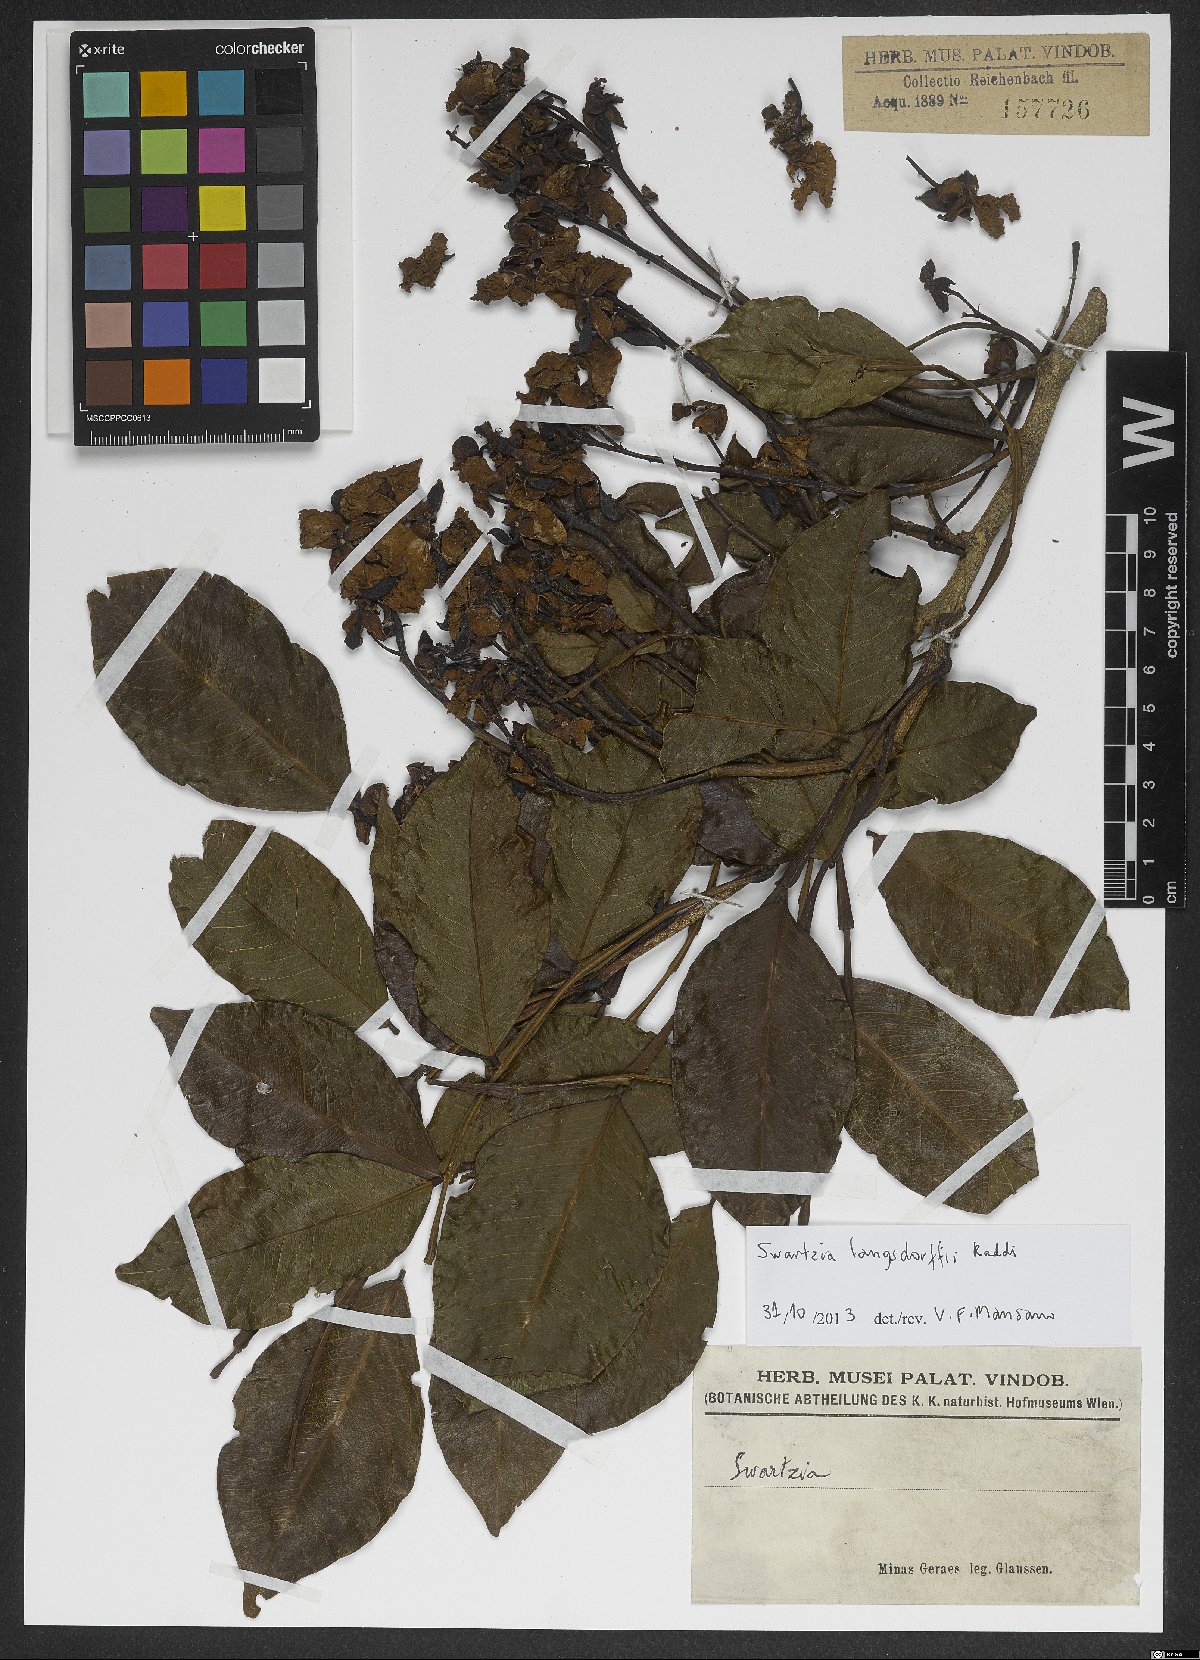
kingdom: Plantae
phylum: Tracheophyta
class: Magnoliopsida
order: Fabales
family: Fabaceae
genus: Swartzia
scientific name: Swartzia langsdorffii
